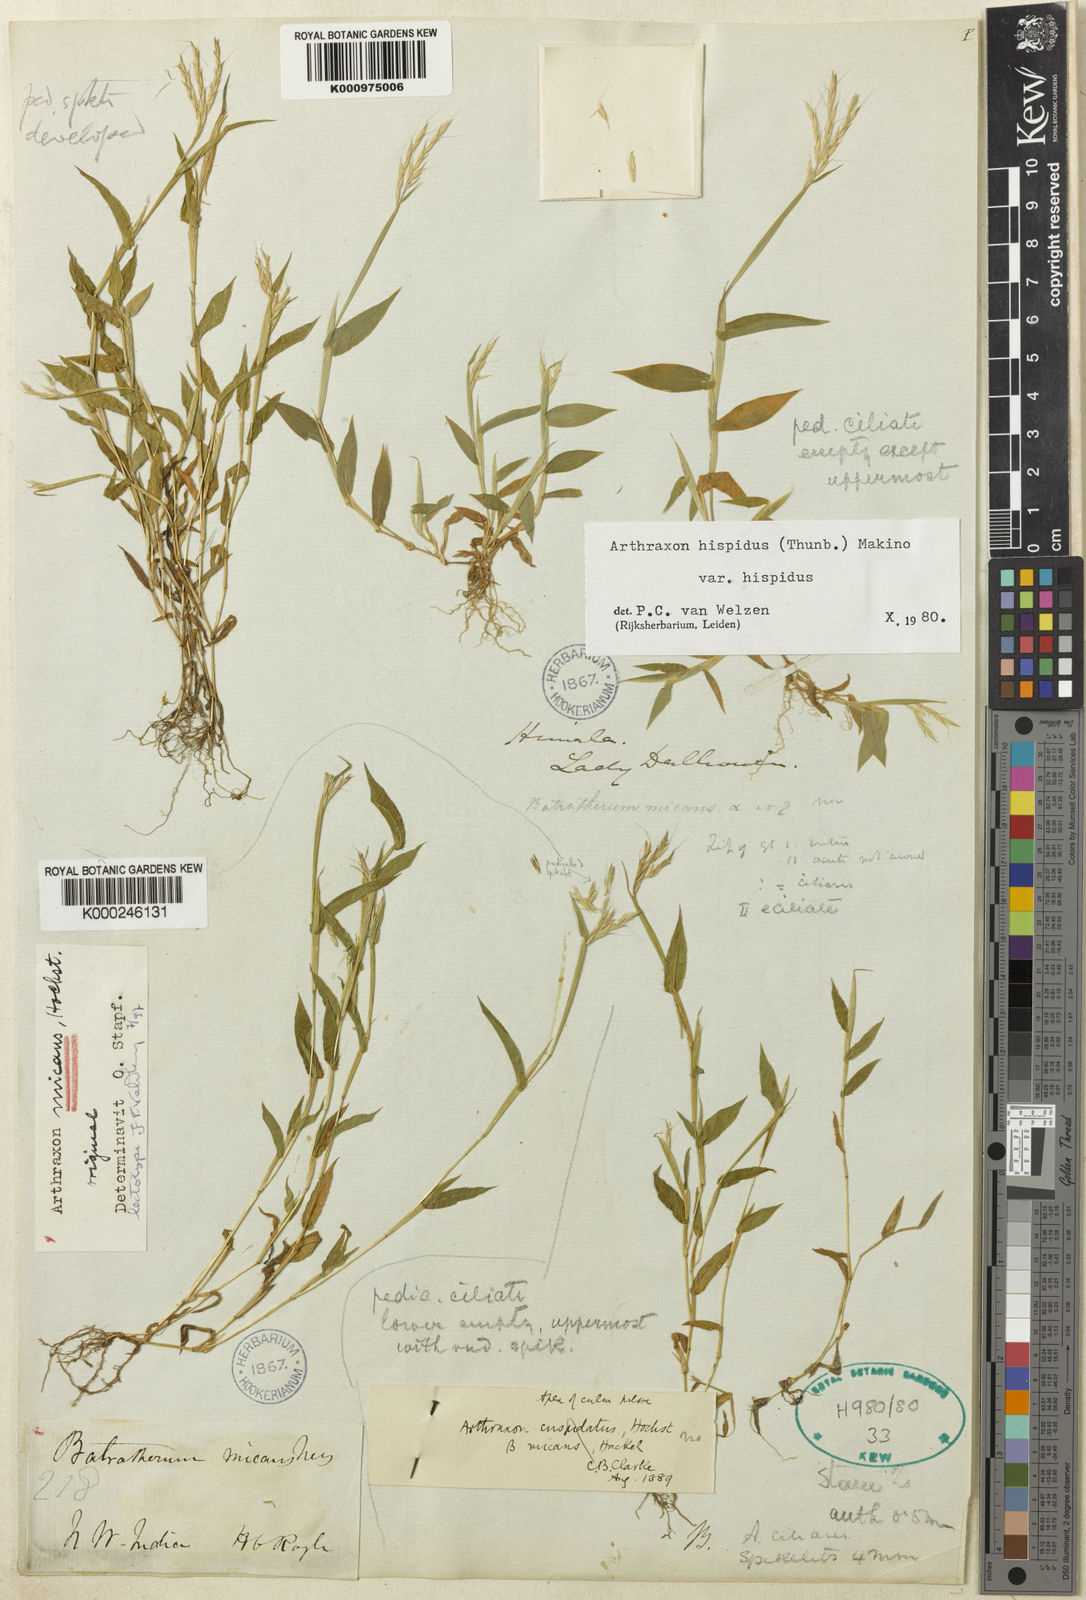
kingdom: Plantae
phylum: Tracheophyta
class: Liliopsida
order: Poales
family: Poaceae
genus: Arthraxon
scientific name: Arthraxon hispidus
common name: Small carpgrass
